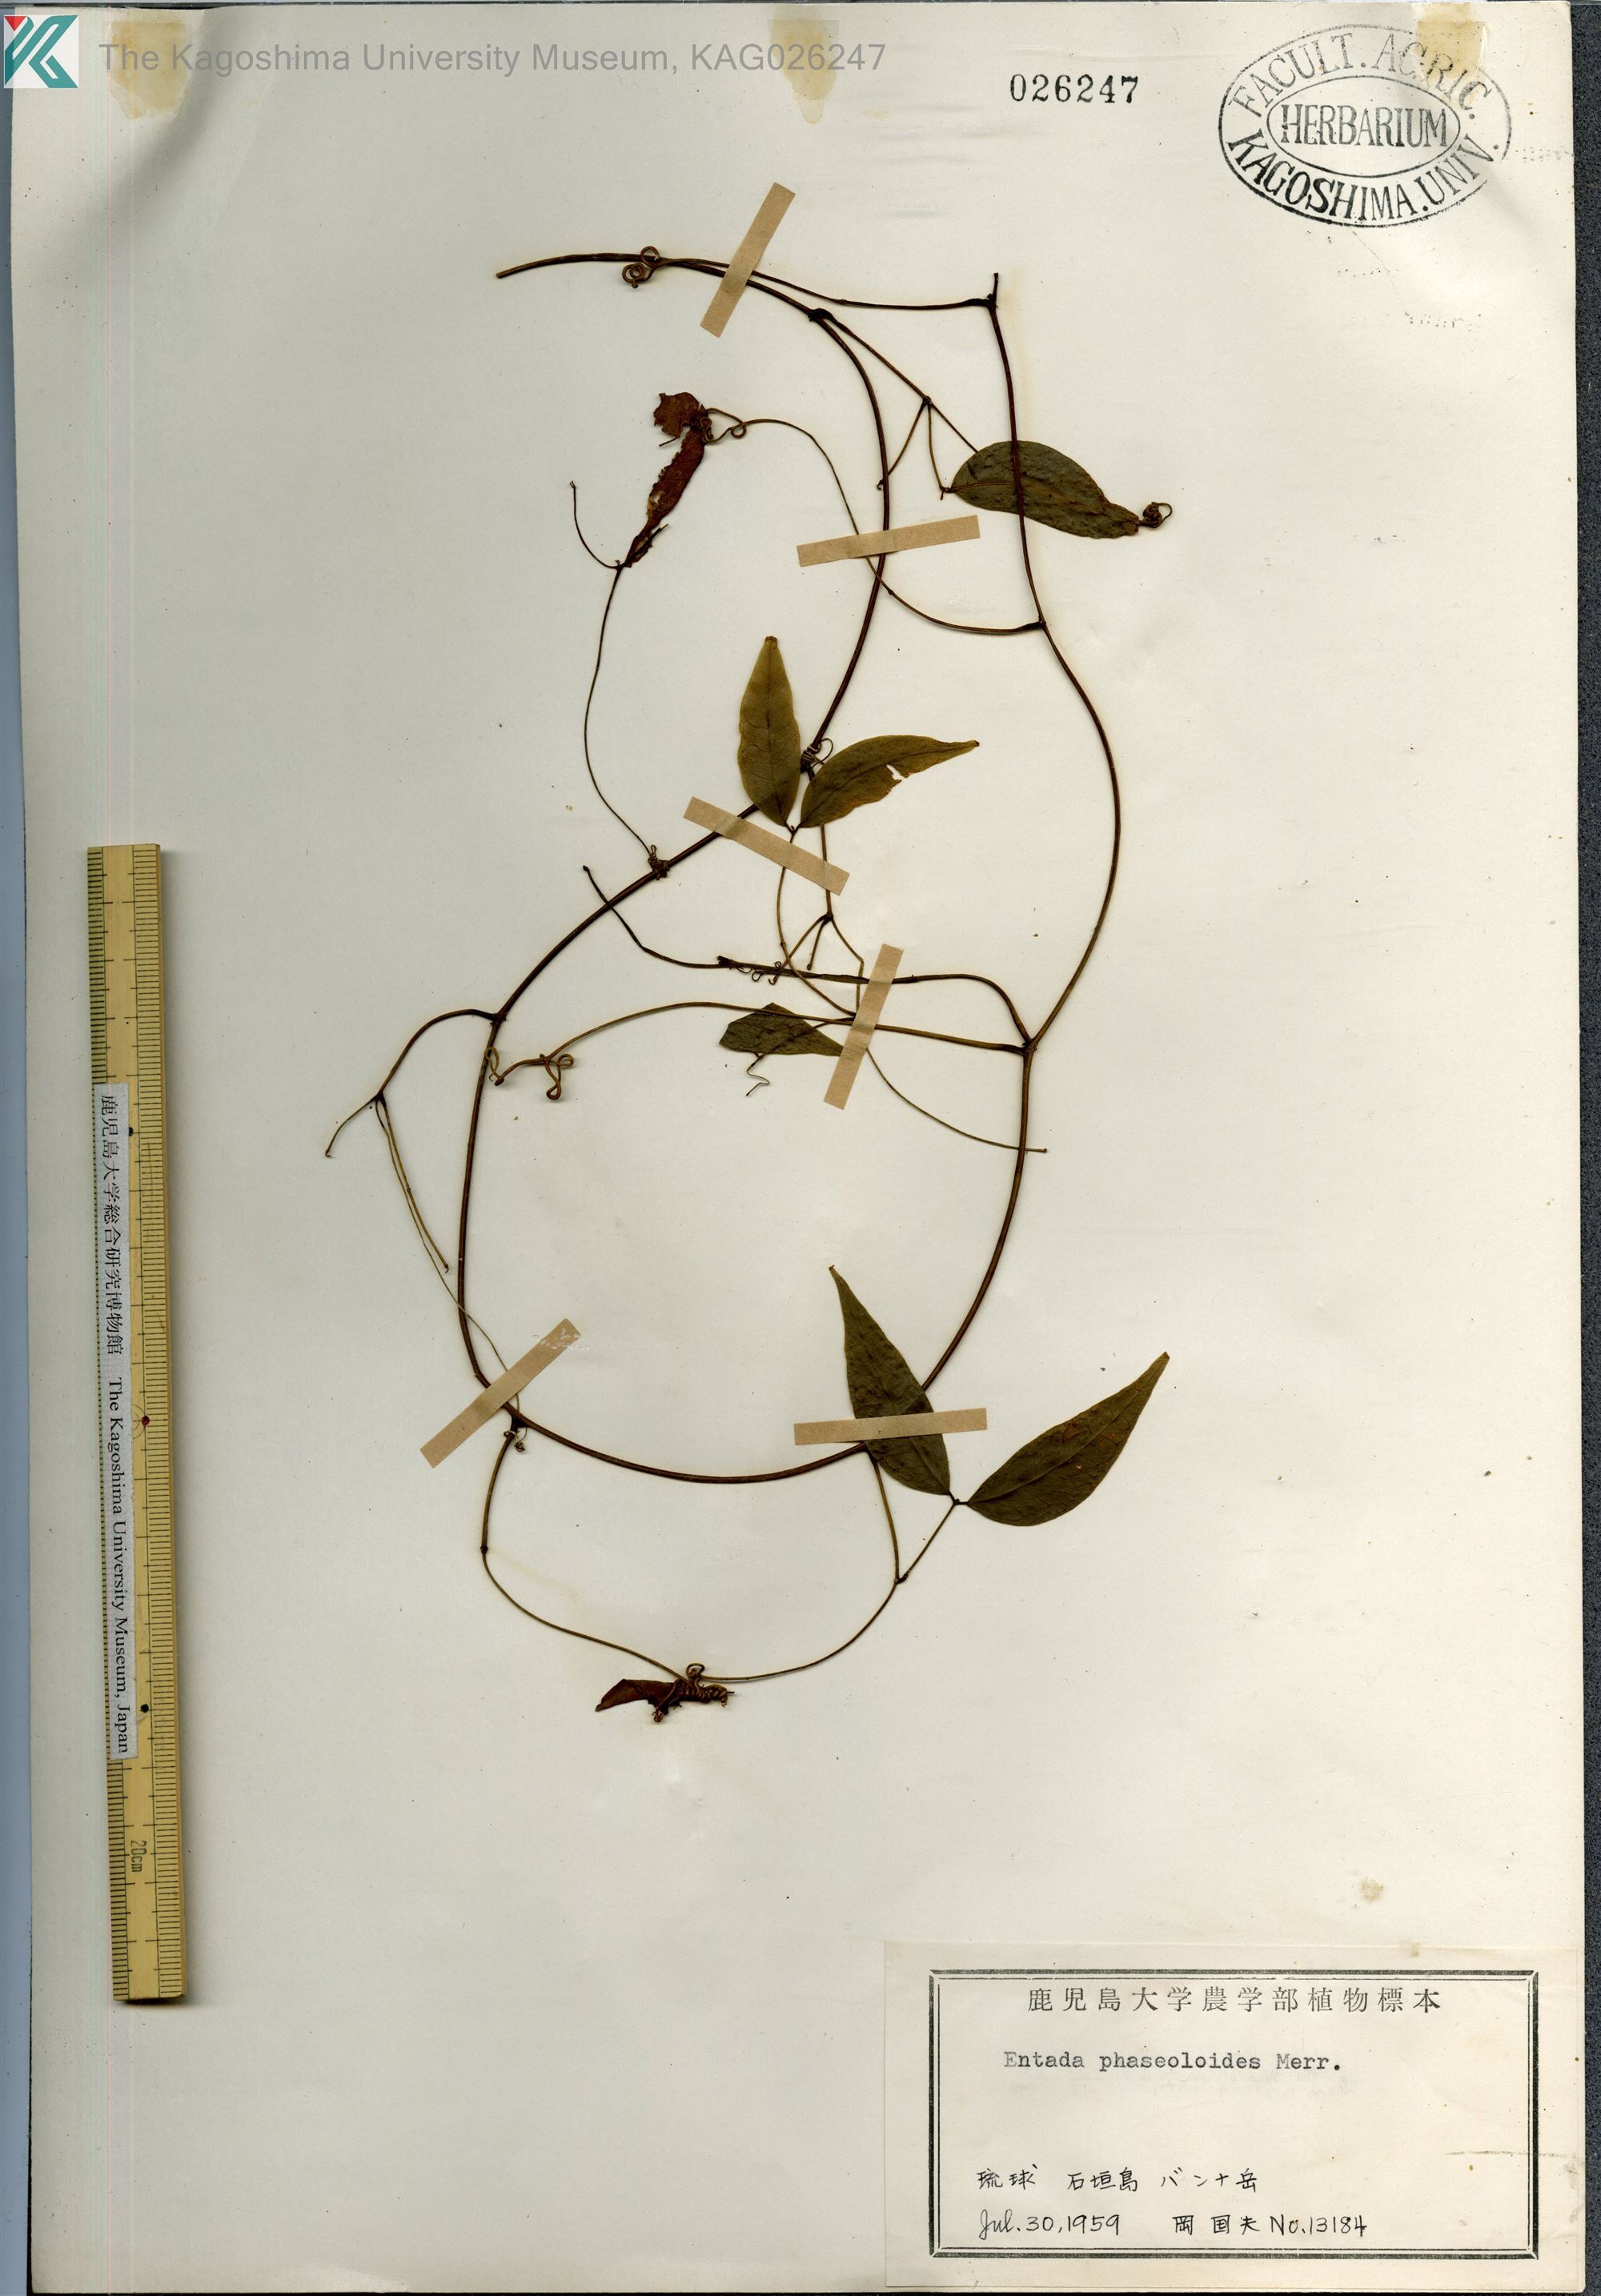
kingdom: Plantae
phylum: Tracheophyta
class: Magnoliopsida
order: Fabales
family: Fabaceae
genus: Entada
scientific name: Entada tonkinensis
